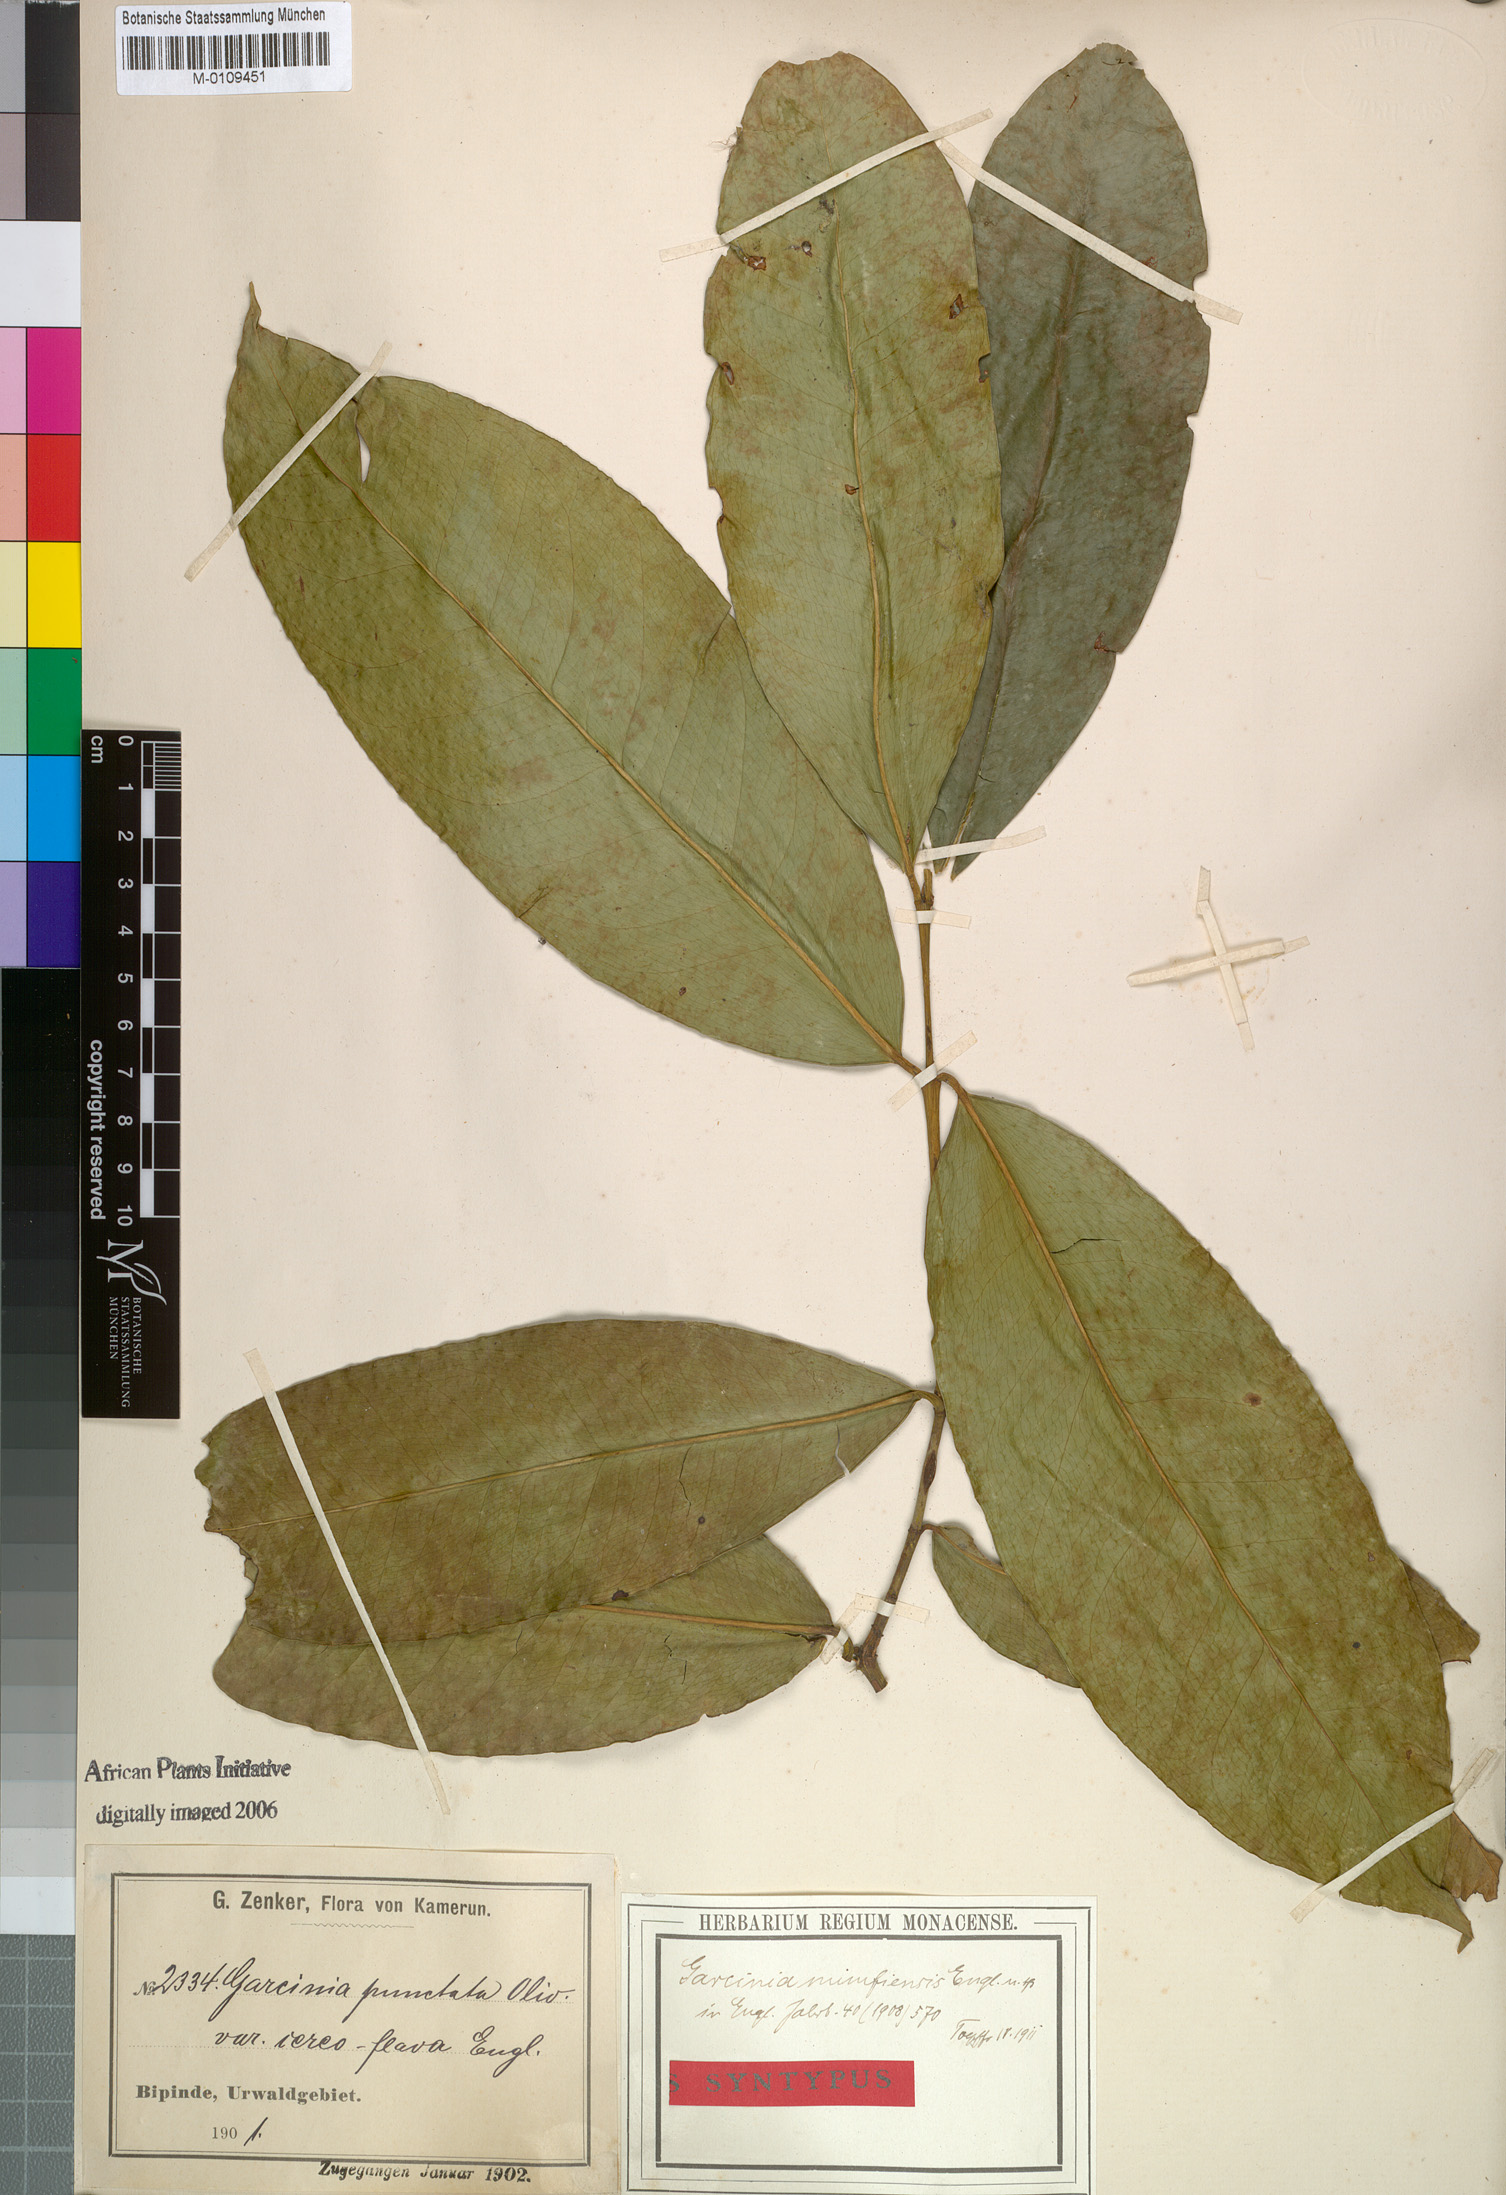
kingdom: Plantae
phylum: Tracheophyta
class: Magnoliopsida
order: Malpighiales
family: Clusiaceae
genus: Garcinia
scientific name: Garcinia epunctata
